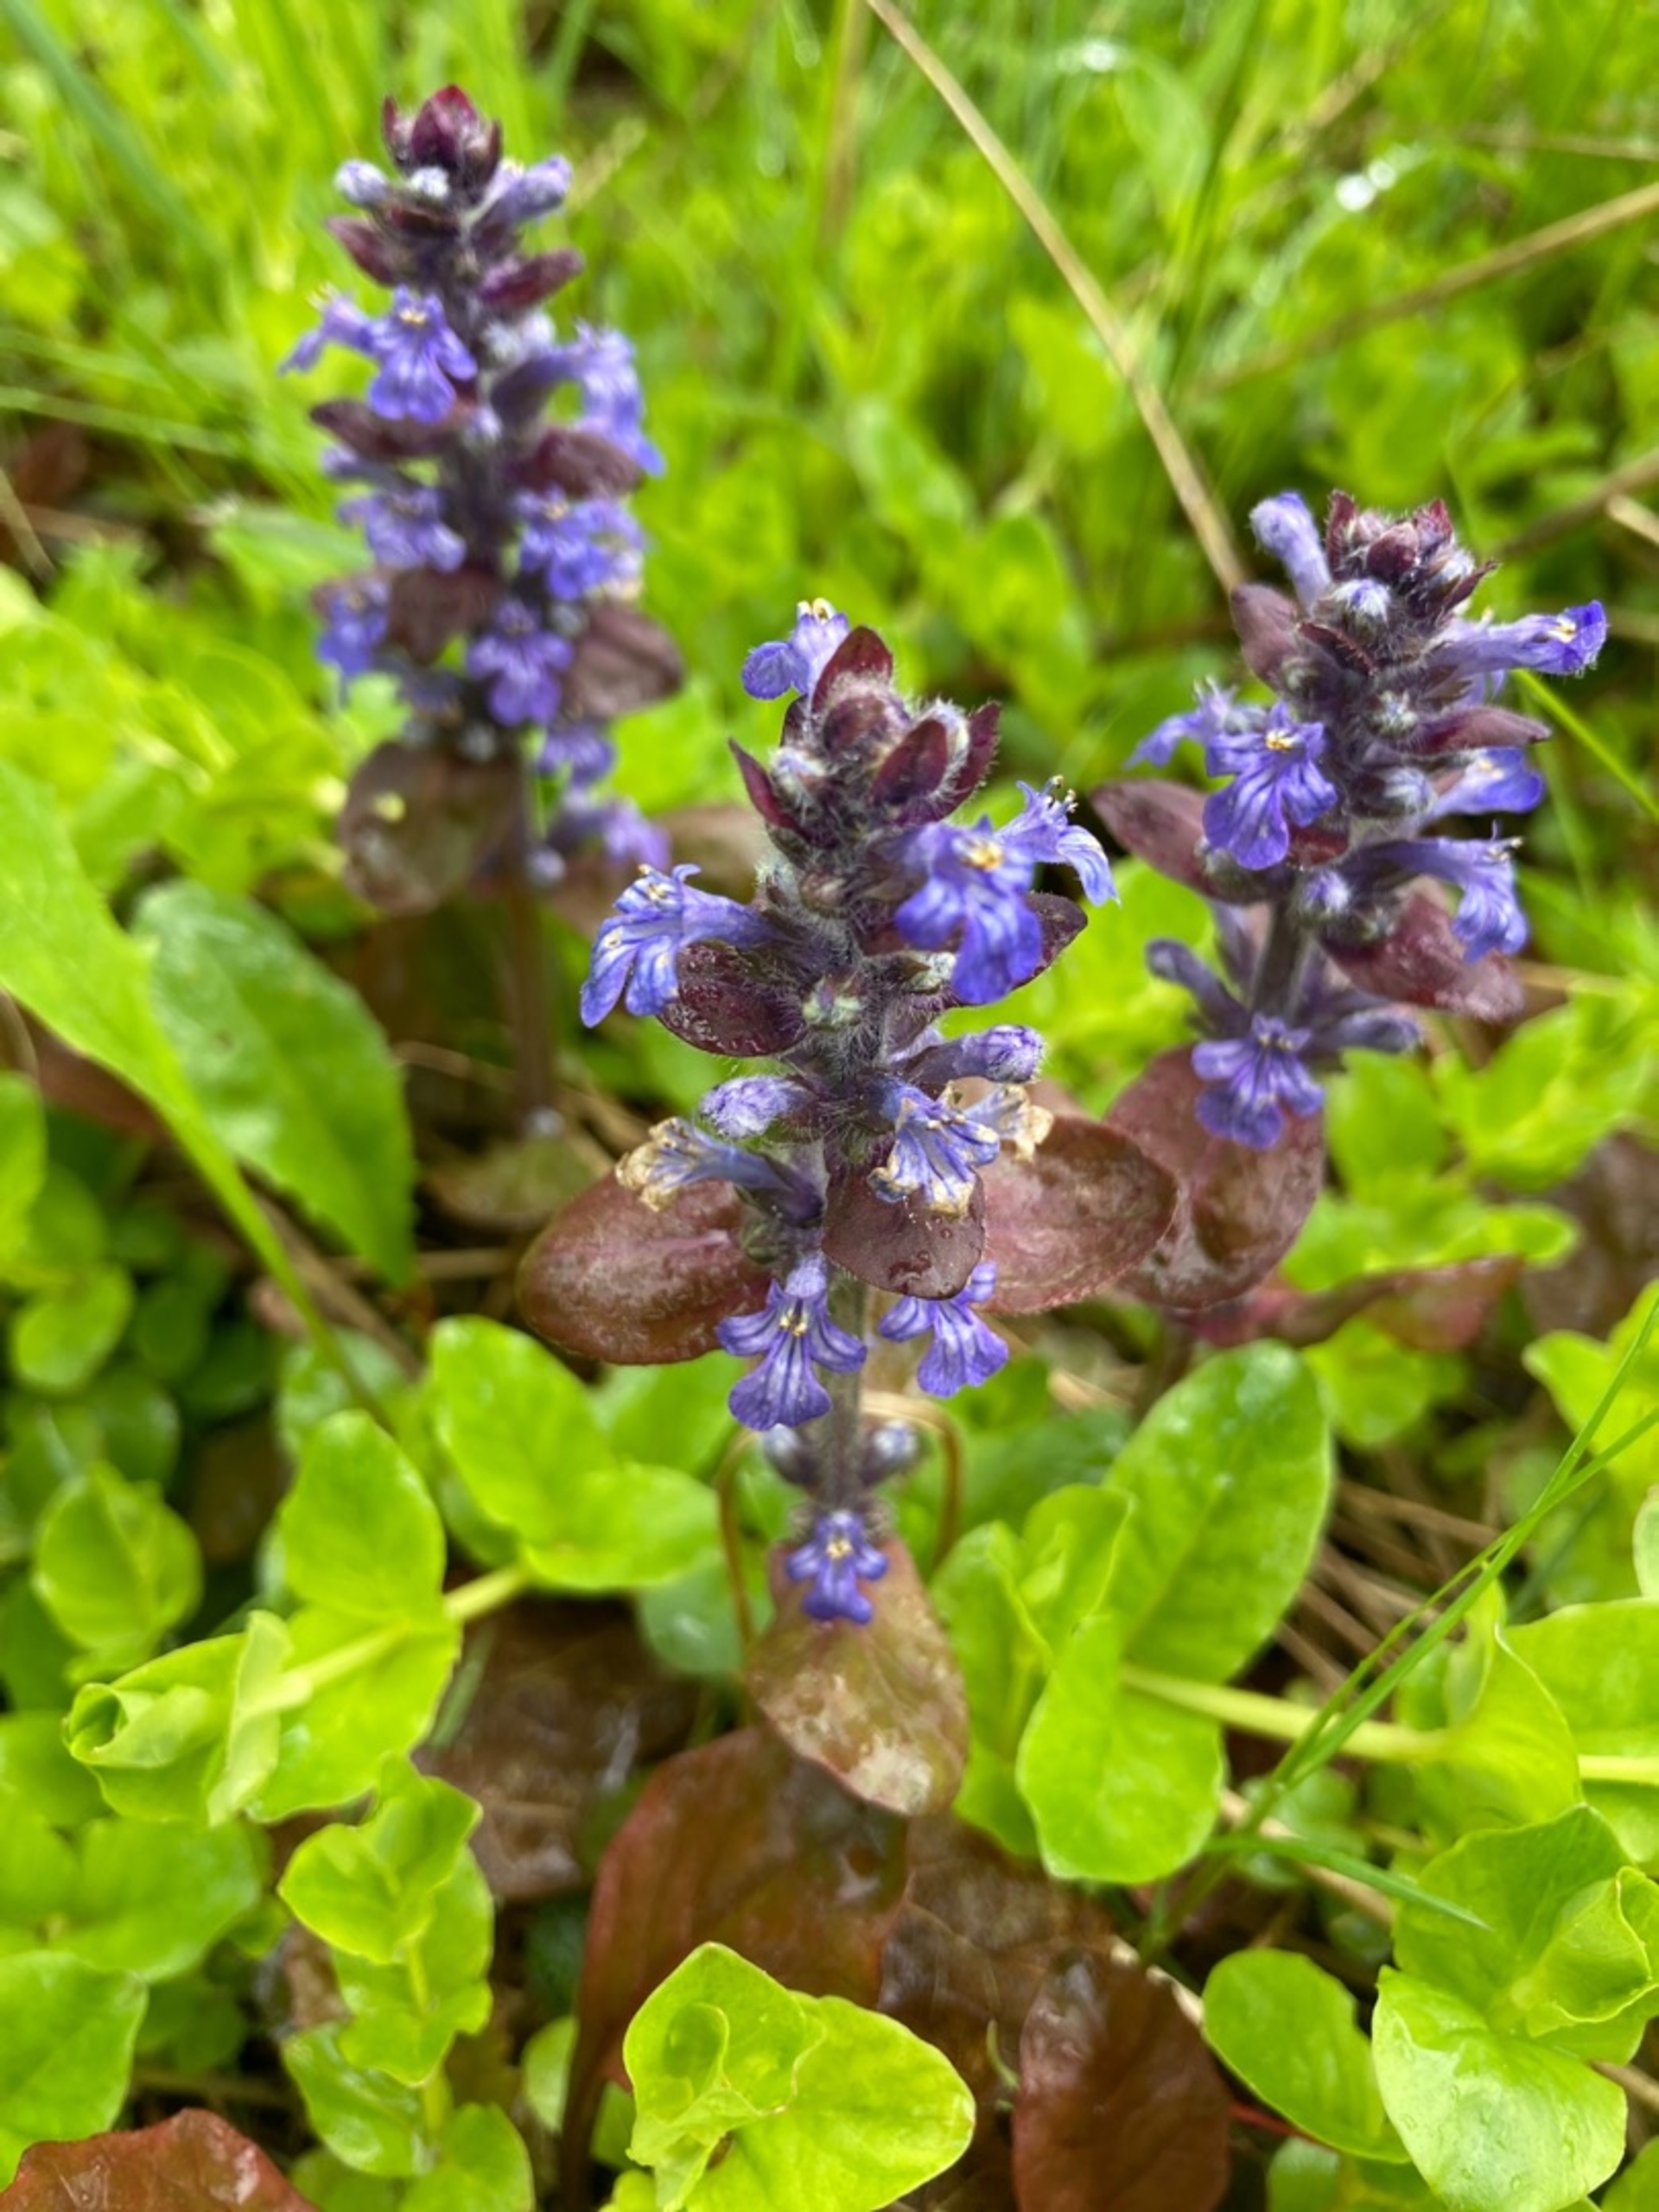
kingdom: Plantae
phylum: Tracheophyta
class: Magnoliopsida
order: Lamiales
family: Lamiaceae
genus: Ajuga
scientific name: Ajuga reptans
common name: Krybende læbeløs
